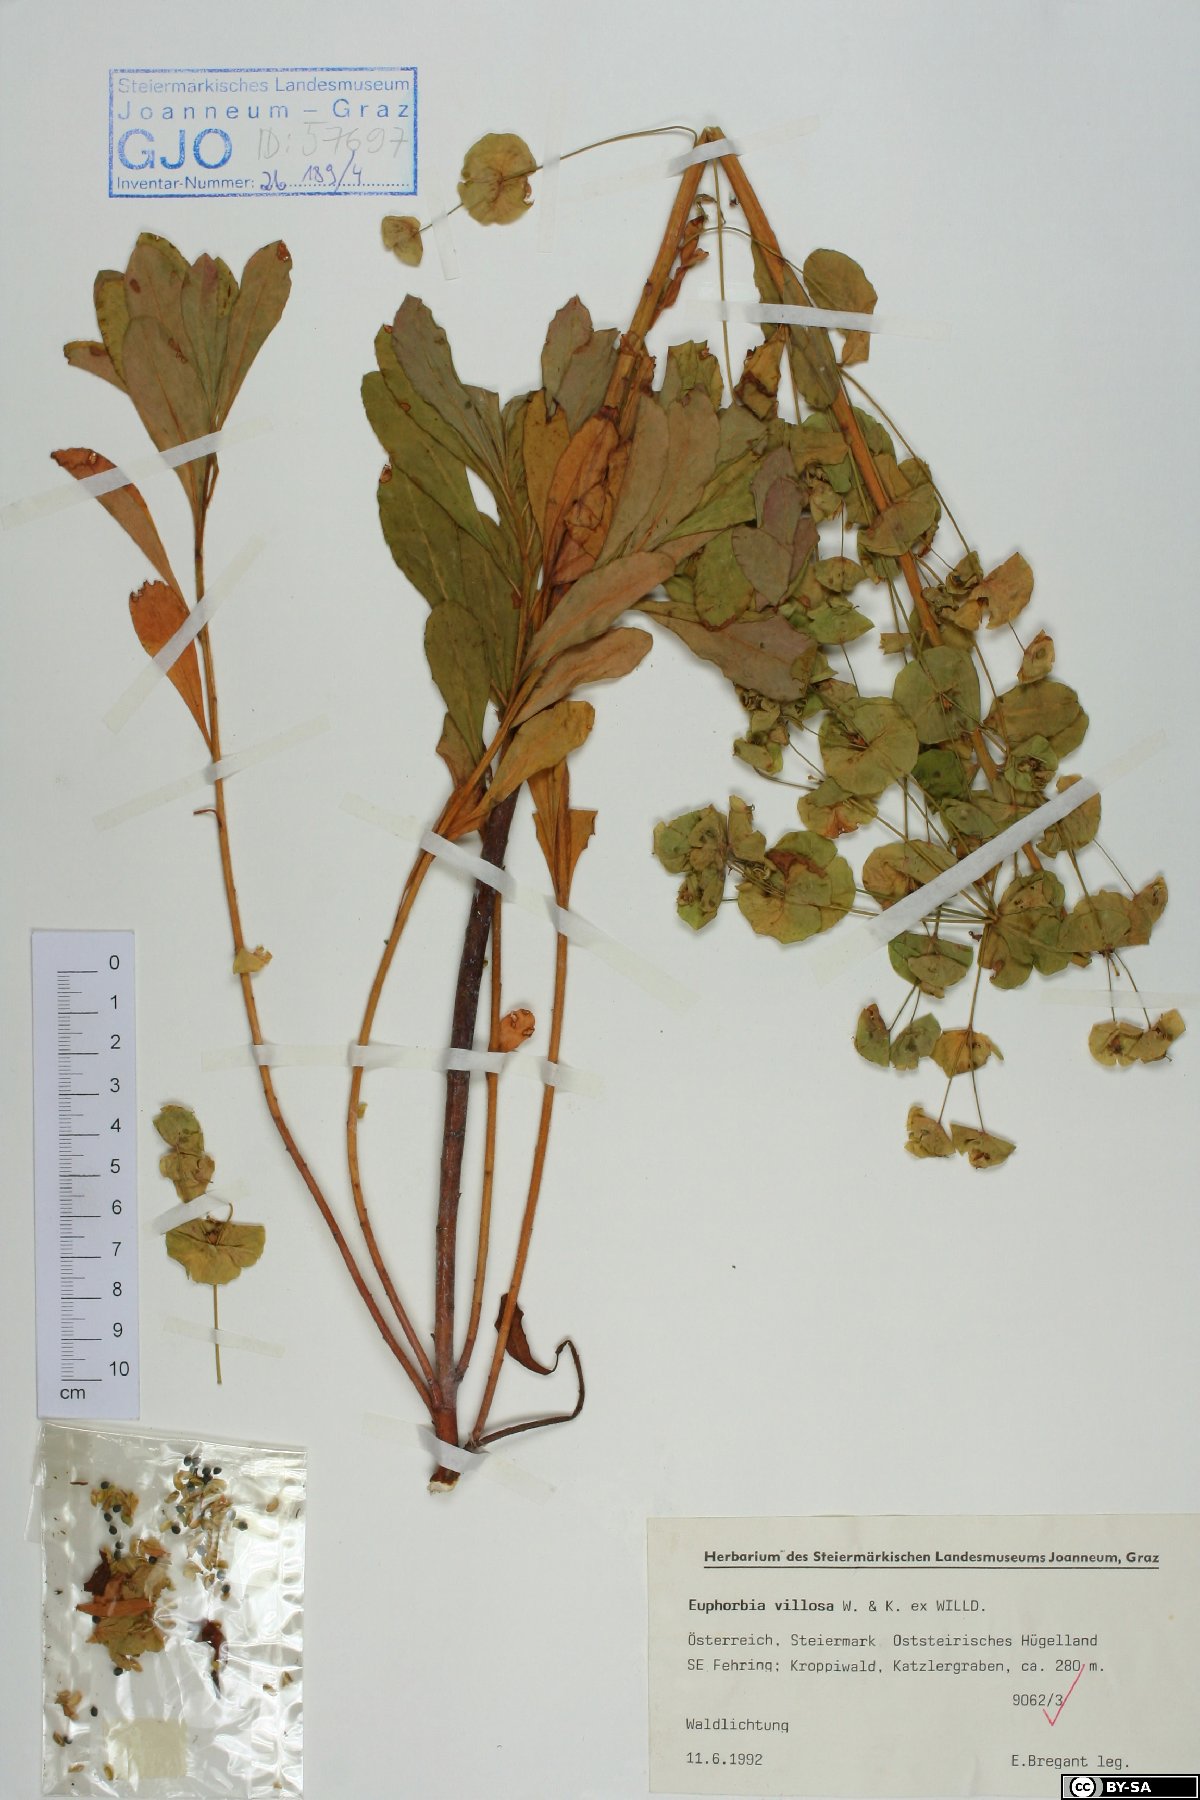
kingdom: Plantae
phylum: Tracheophyta
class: Magnoliopsida
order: Malpighiales
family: Euphorbiaceae
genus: Euphorbia
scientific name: Euphorbia amygdaloides
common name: Wood spurge
